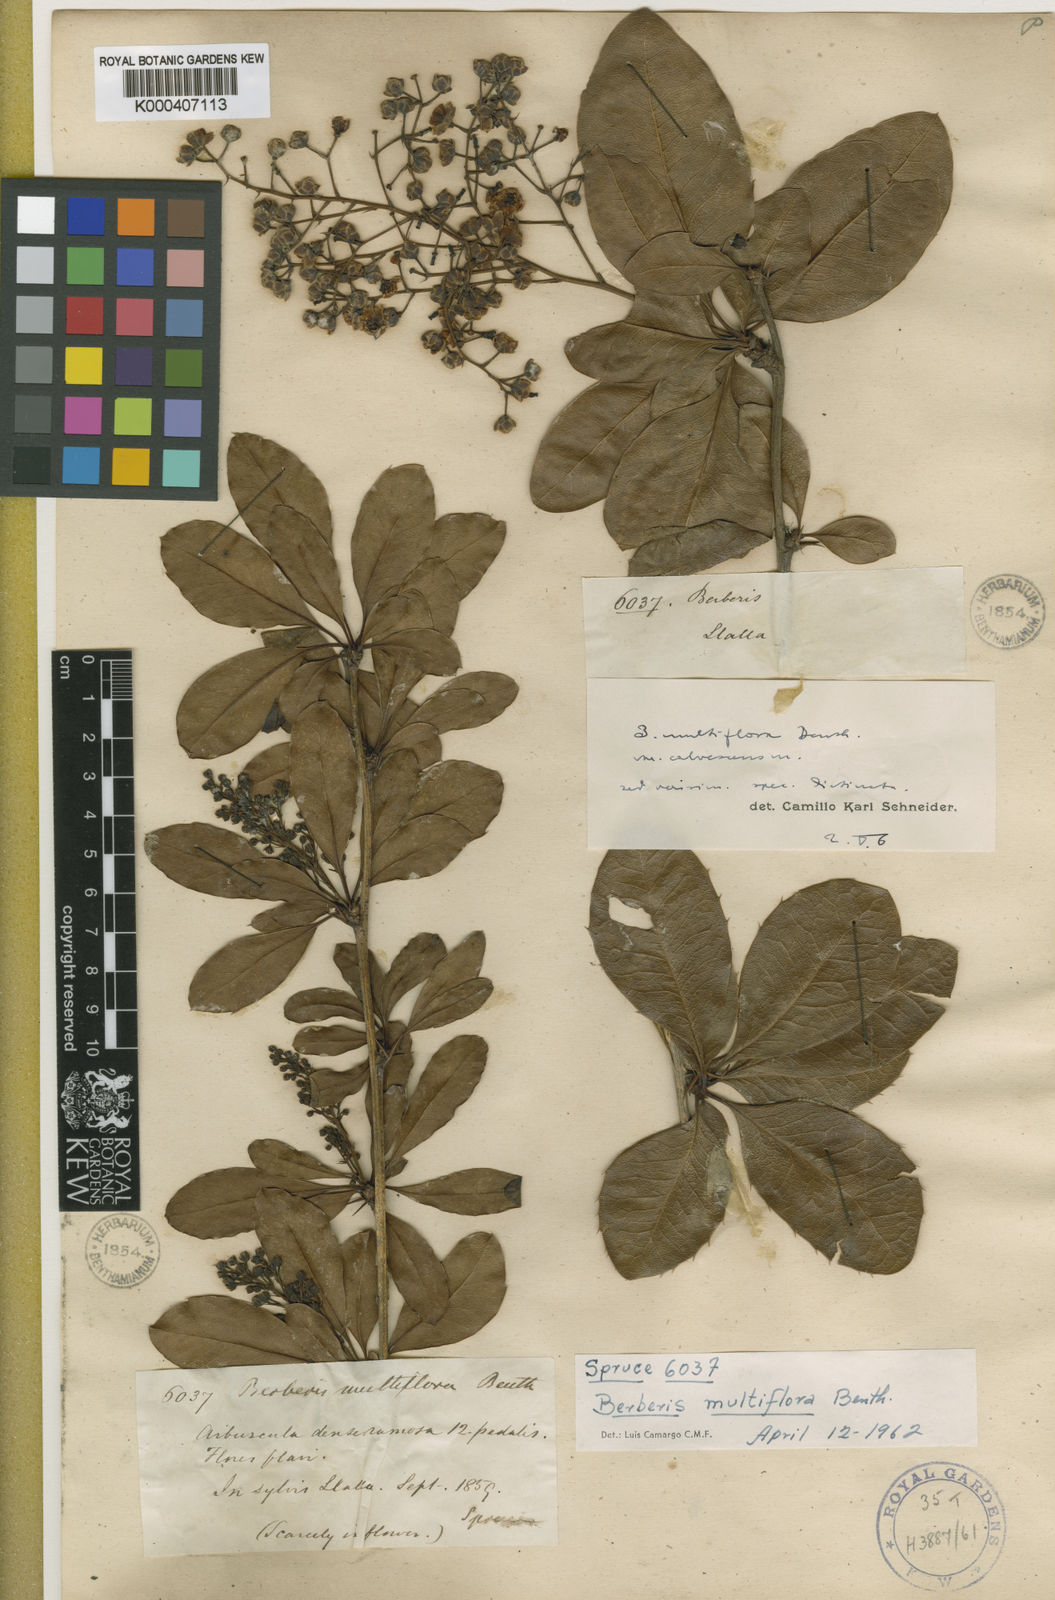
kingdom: Plantae
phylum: Tracheophyta
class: Magnoliopsida
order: Ranunculales
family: Berberidaceae
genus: Berberis
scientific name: Berberis multiflora
